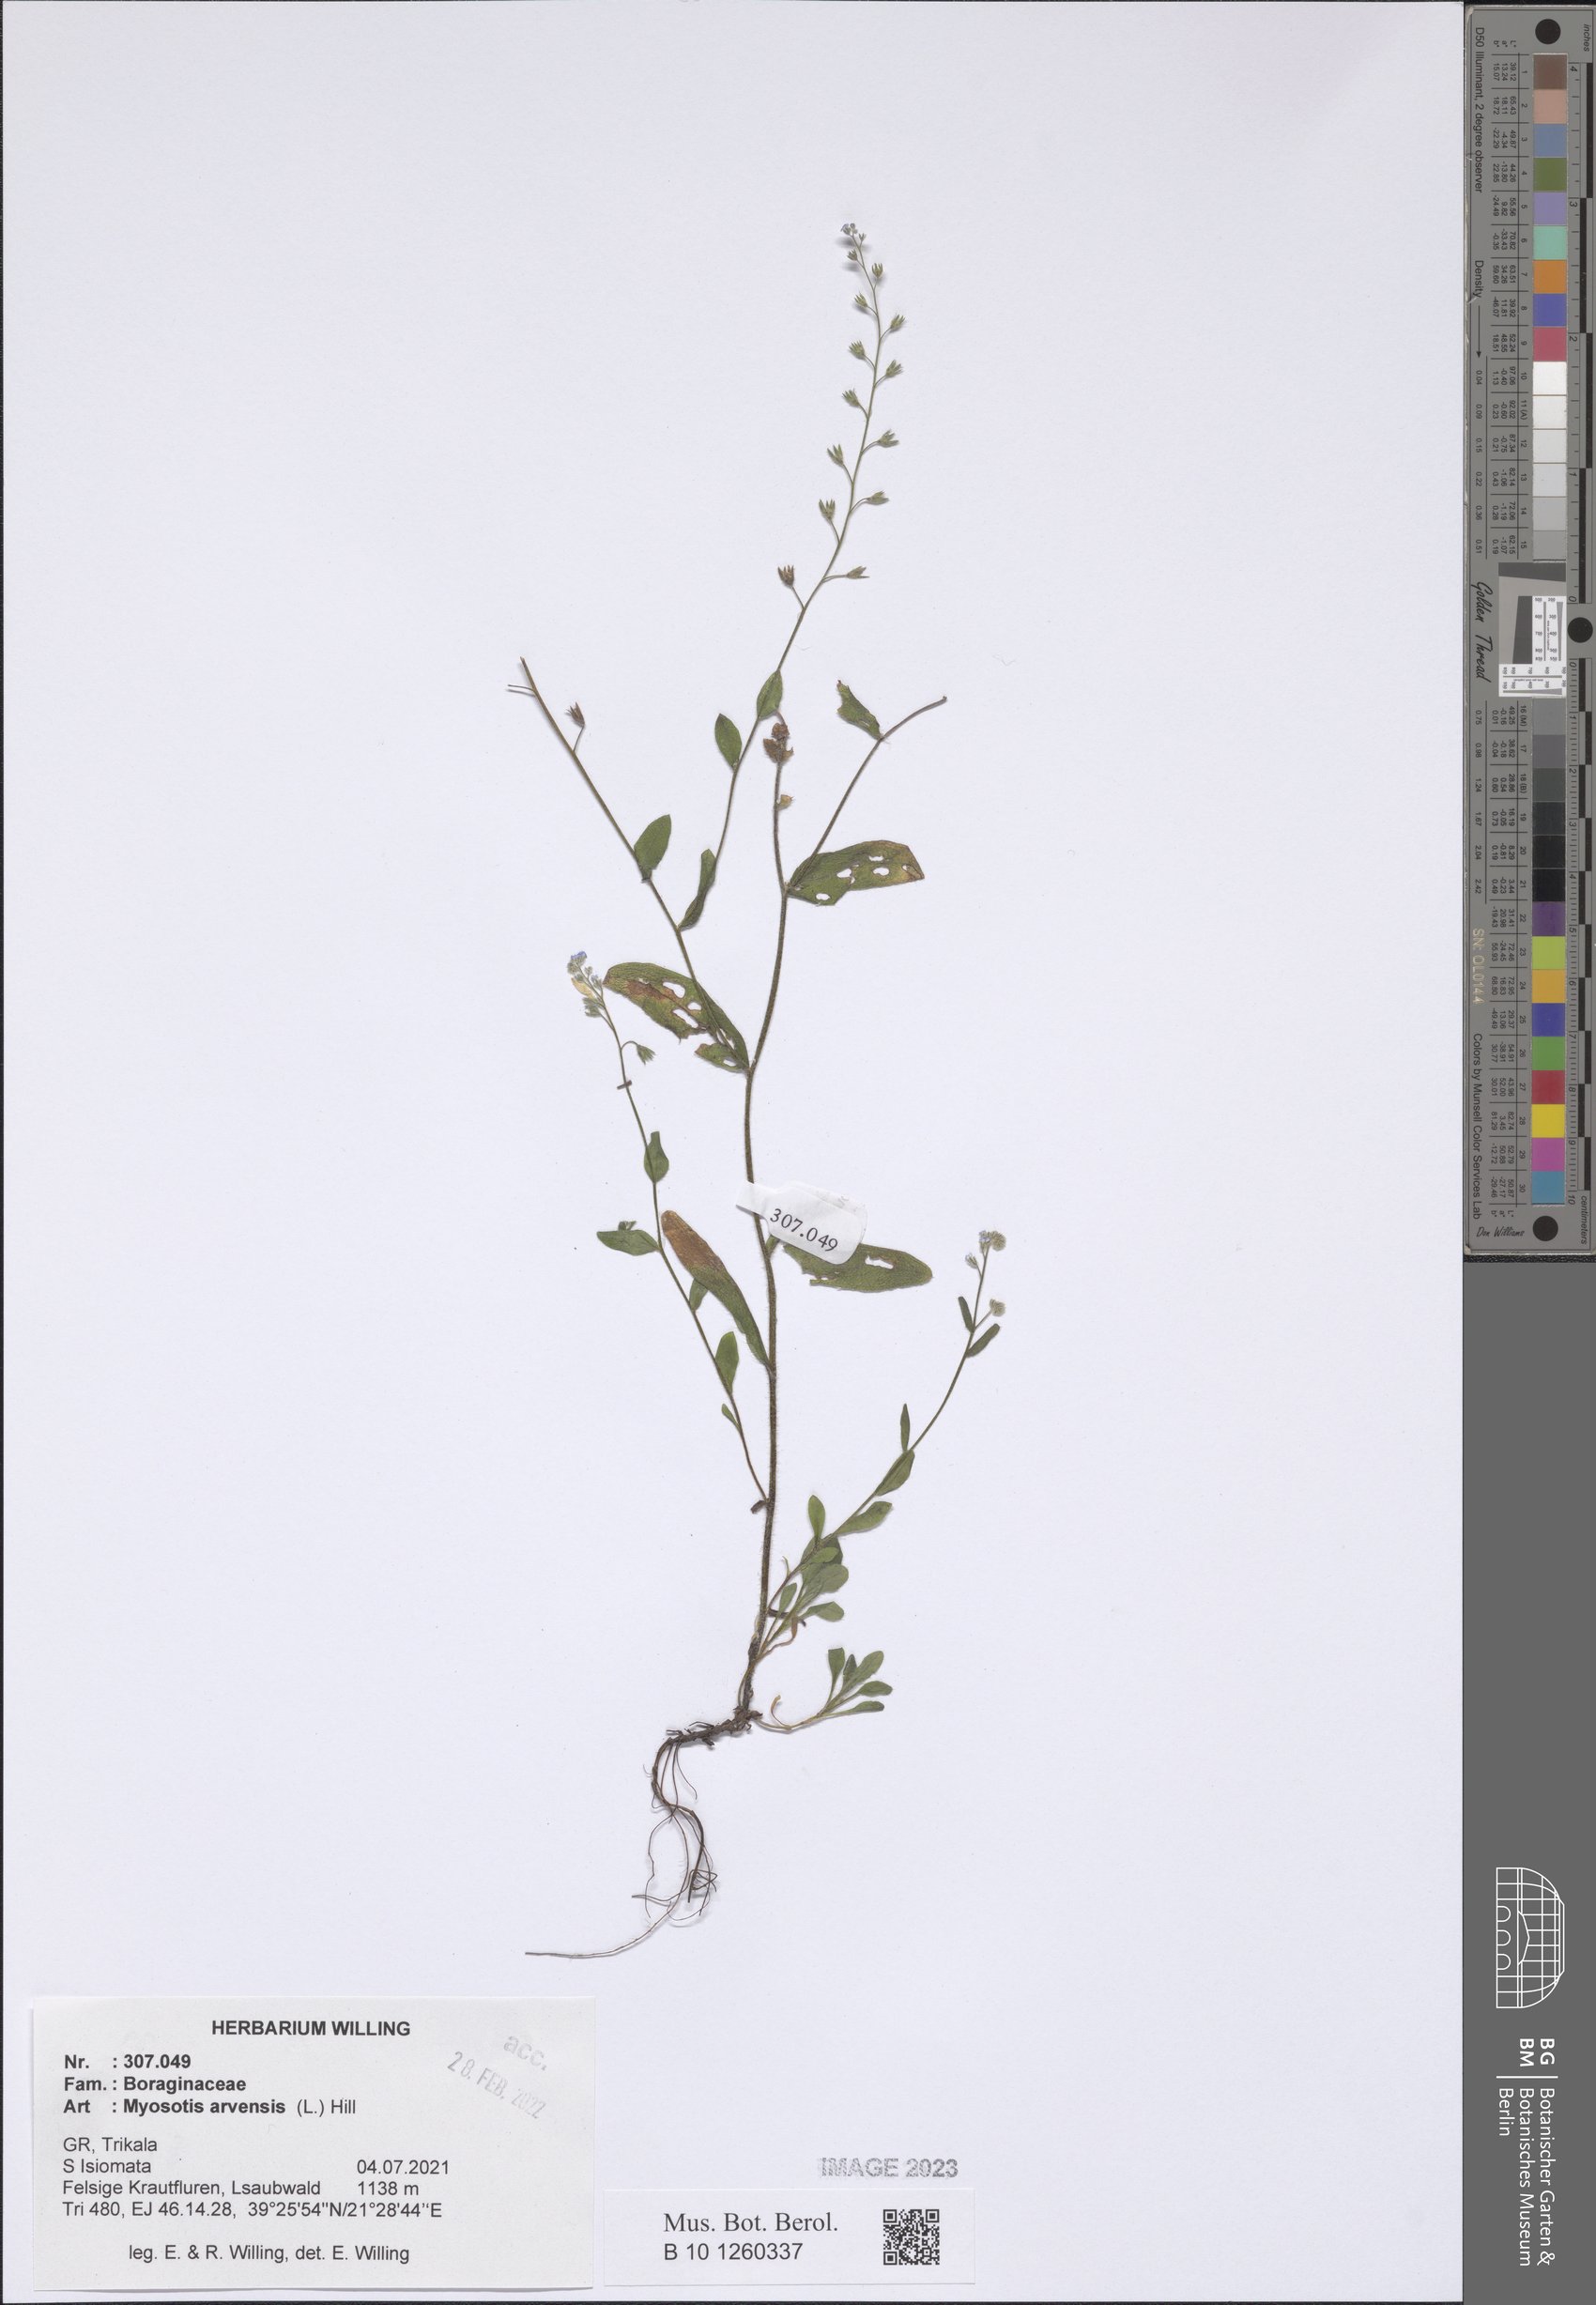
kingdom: Plantae
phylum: Tracheophyta
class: Magnoliopsida
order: Boraginales
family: Boraginaceae
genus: Myosotis
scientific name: Myosotis arvensis
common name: Field forget-me-not
